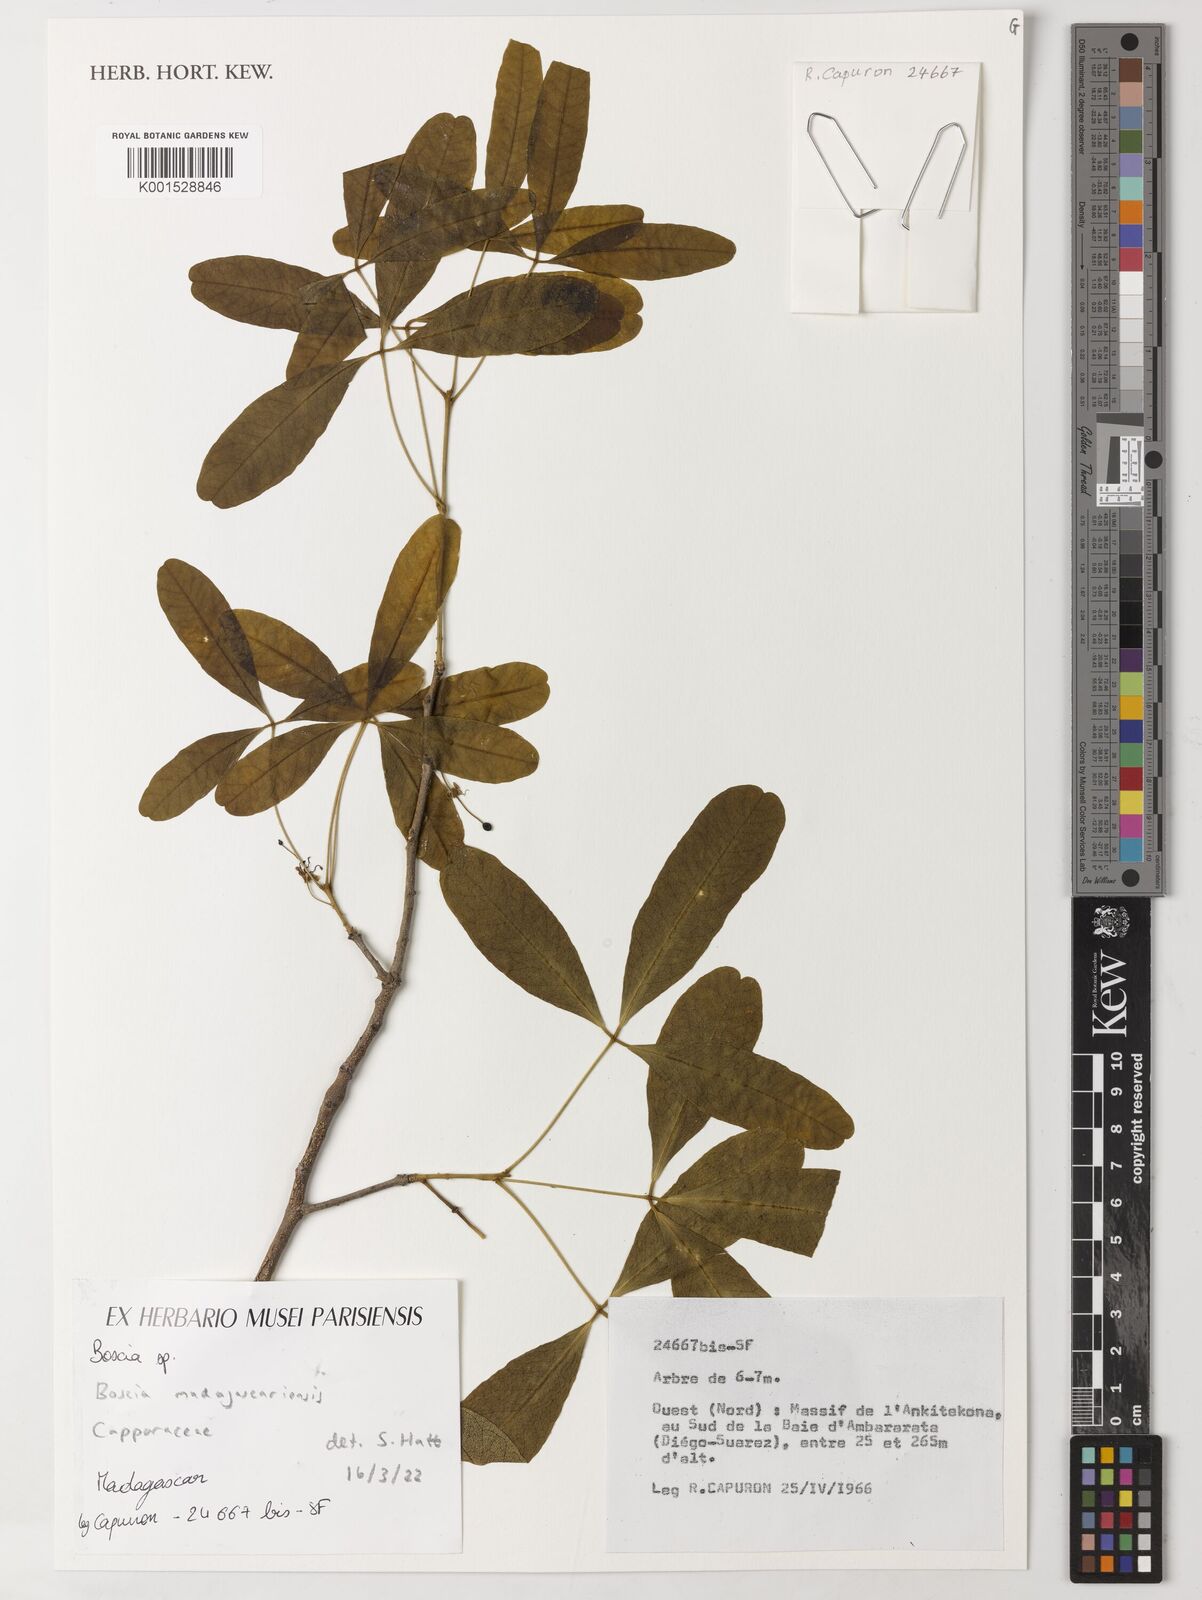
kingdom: Plantae
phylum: Tracheophyta
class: Magnoliopsida
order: Brassicales
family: Capparaceae
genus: Boscia
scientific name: Boscia madagascariensis
